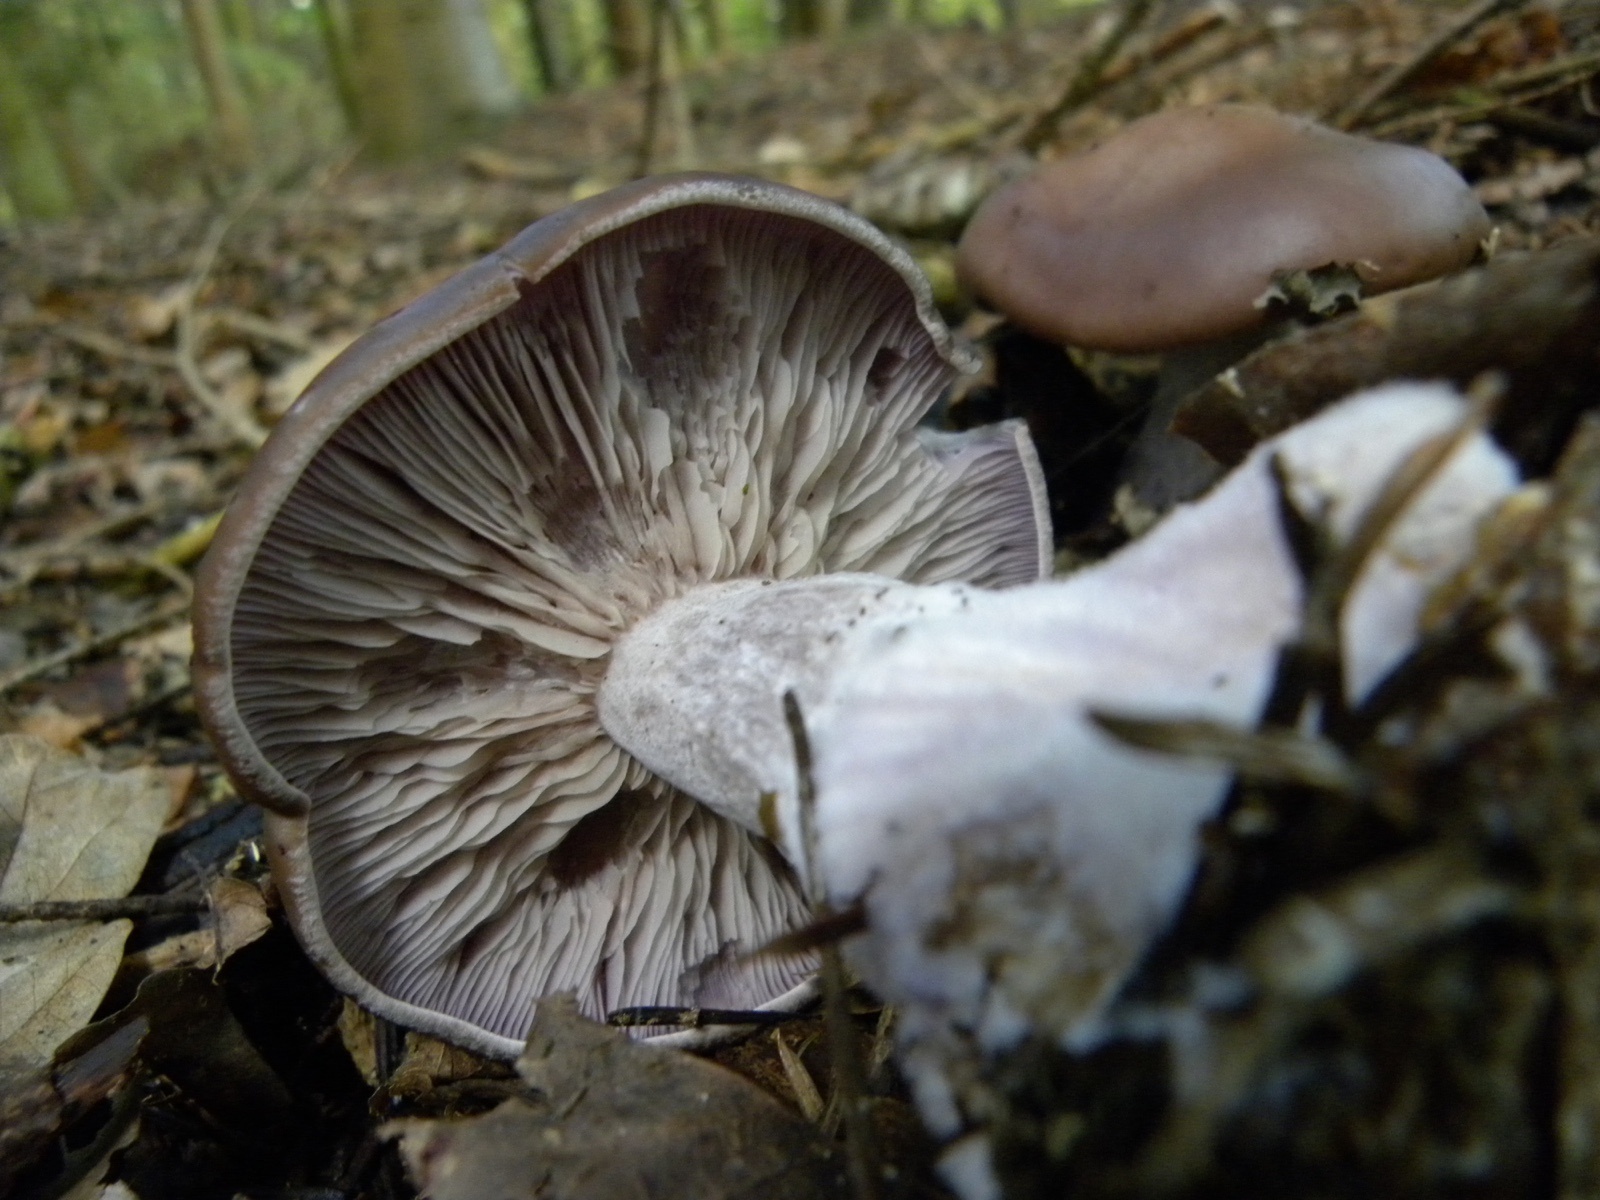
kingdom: Fungi
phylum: Basidiomycota
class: Agaricomycetes
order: Agaricales
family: Tricholomataceae
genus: Lepista
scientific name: Lepista nuda
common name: violet hekseringshat
